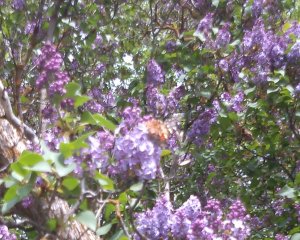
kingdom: Animalia
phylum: Arthropoda
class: Insecta
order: Lepidoptera
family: Nymphalidae
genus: Vanessa
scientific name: Vanessa cardui
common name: Painted Lady
